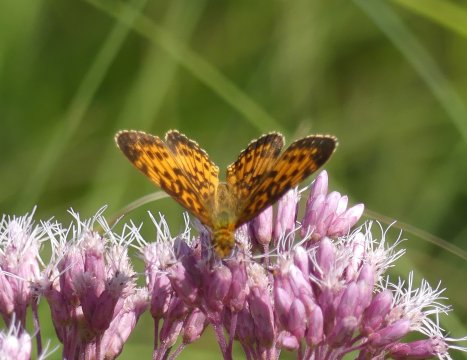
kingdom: Animalia
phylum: Arthropoda
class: Insecta
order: Lepidoptera
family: Nymphalidae
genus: Boloria
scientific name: Boloria selene
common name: Silver-bordered Fritillary
